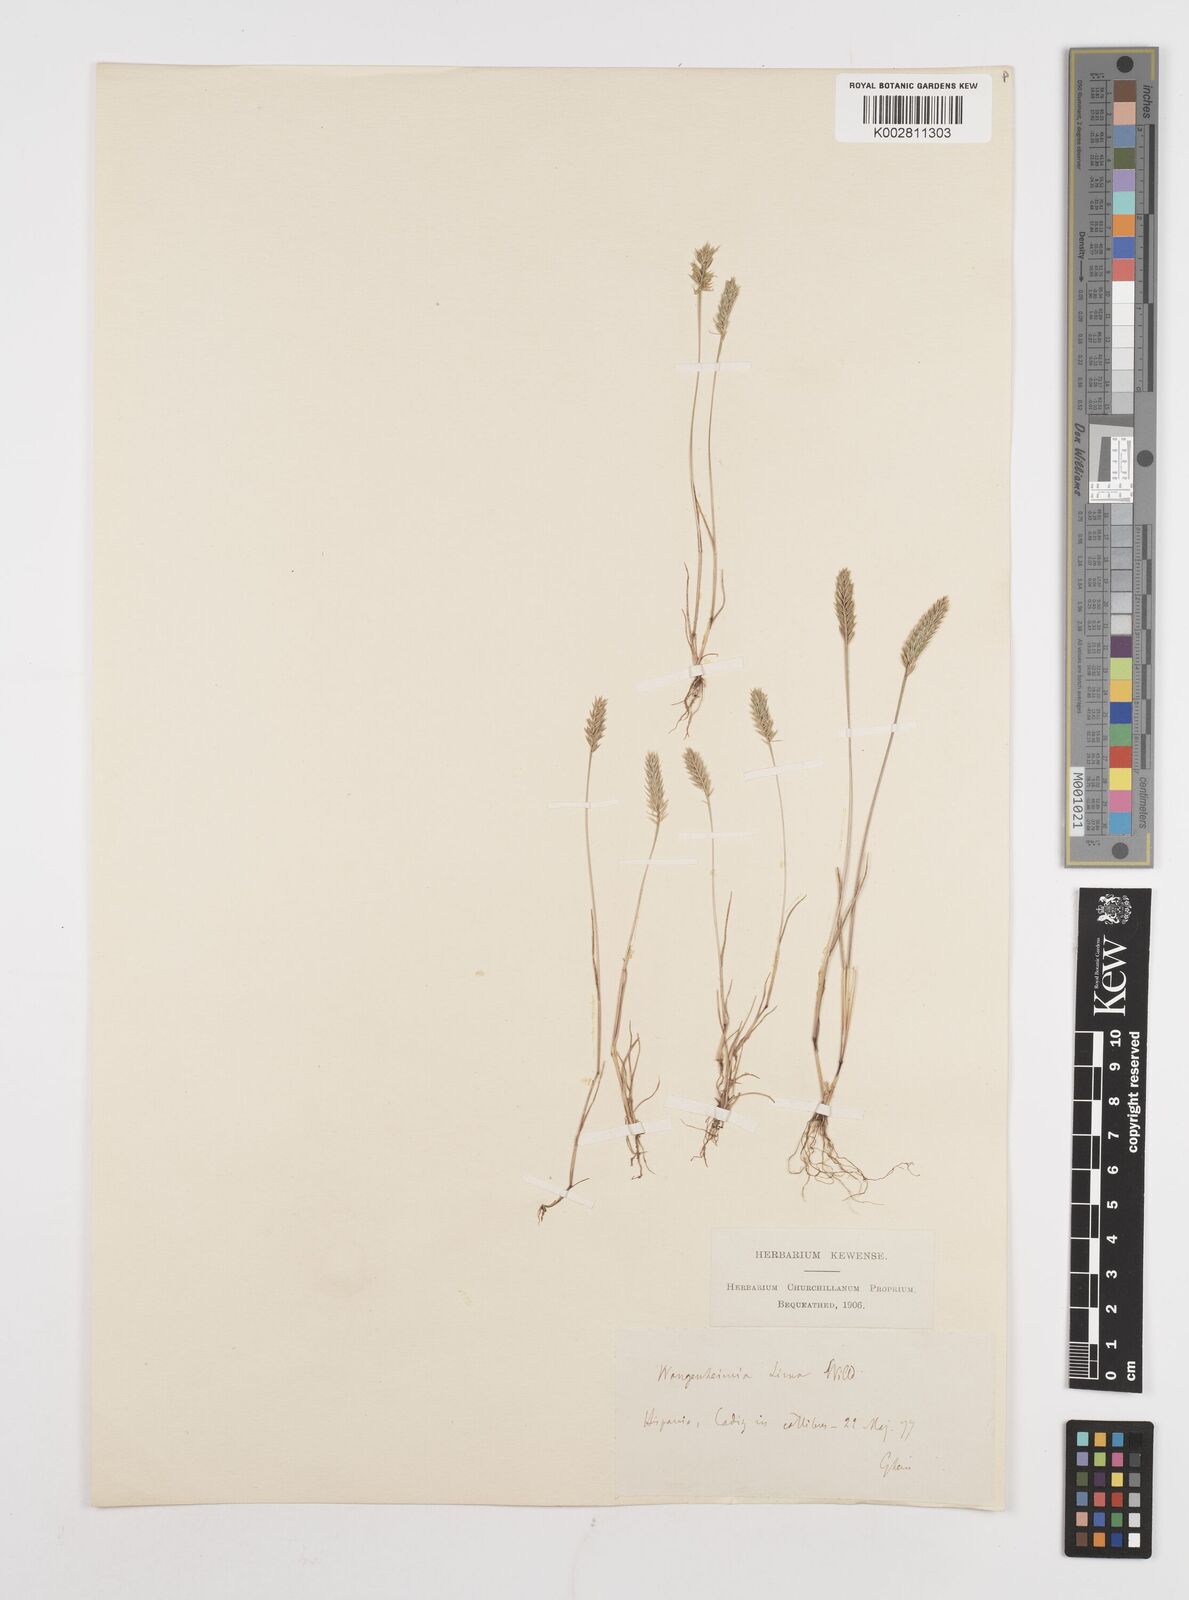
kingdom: Plantae
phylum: Tracheophyta
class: Liliopsida
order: Poales
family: Poaceae
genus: Wangenheimia
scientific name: Wangenheimia lima
